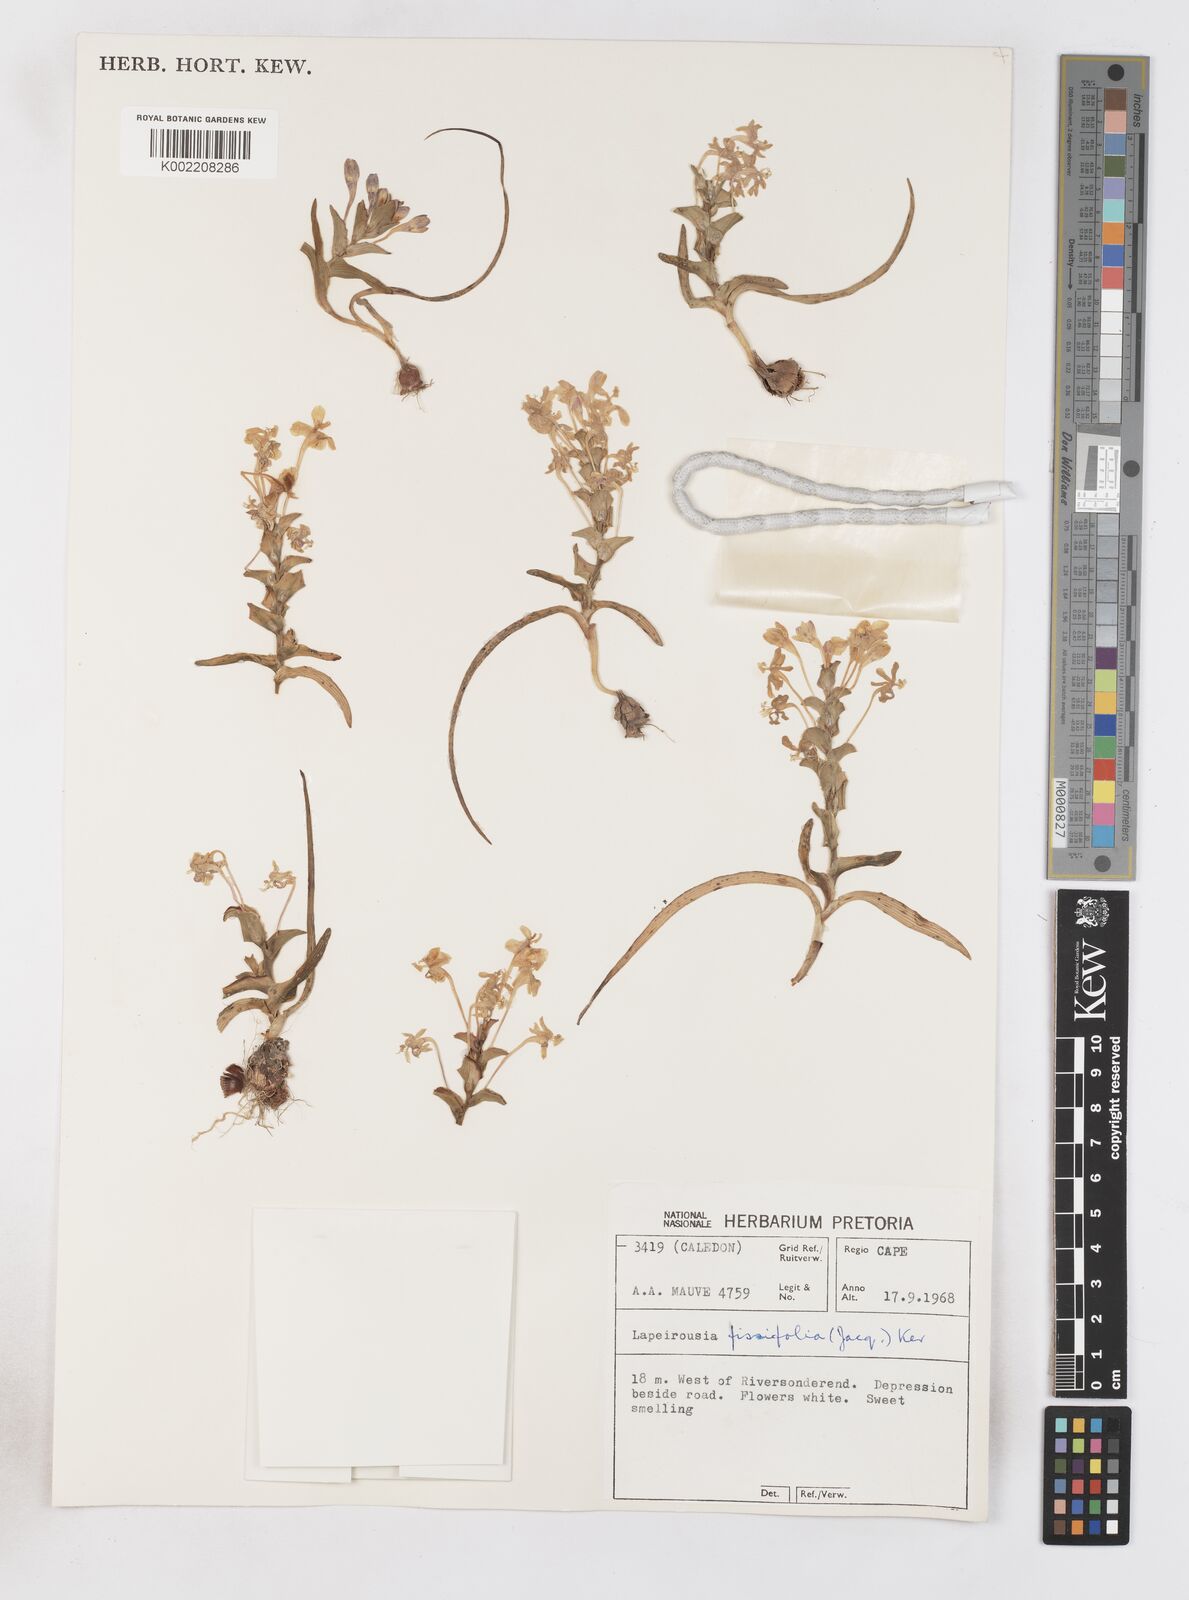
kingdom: Plantae
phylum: Tracheophyta
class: Liliopsida
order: Asparagales
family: Iridaceae
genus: Lapeirousia
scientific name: Lapeirousia pyramidalis
